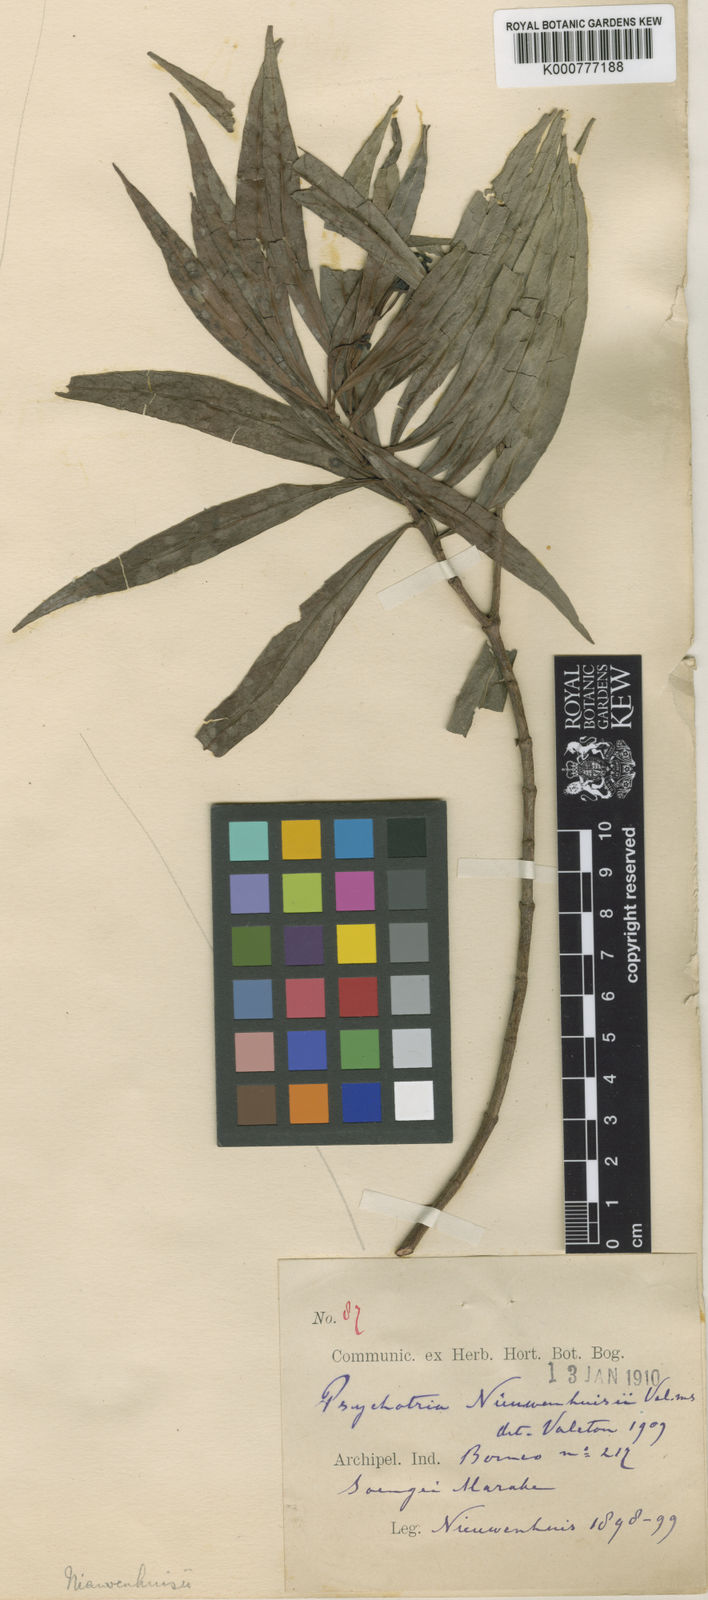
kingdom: Plantae
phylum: Tracheophyta
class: Magnoliopsida
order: Gentianales
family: Rubiaceae
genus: Psychotria
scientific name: Psychotria nieuwenhuizii
